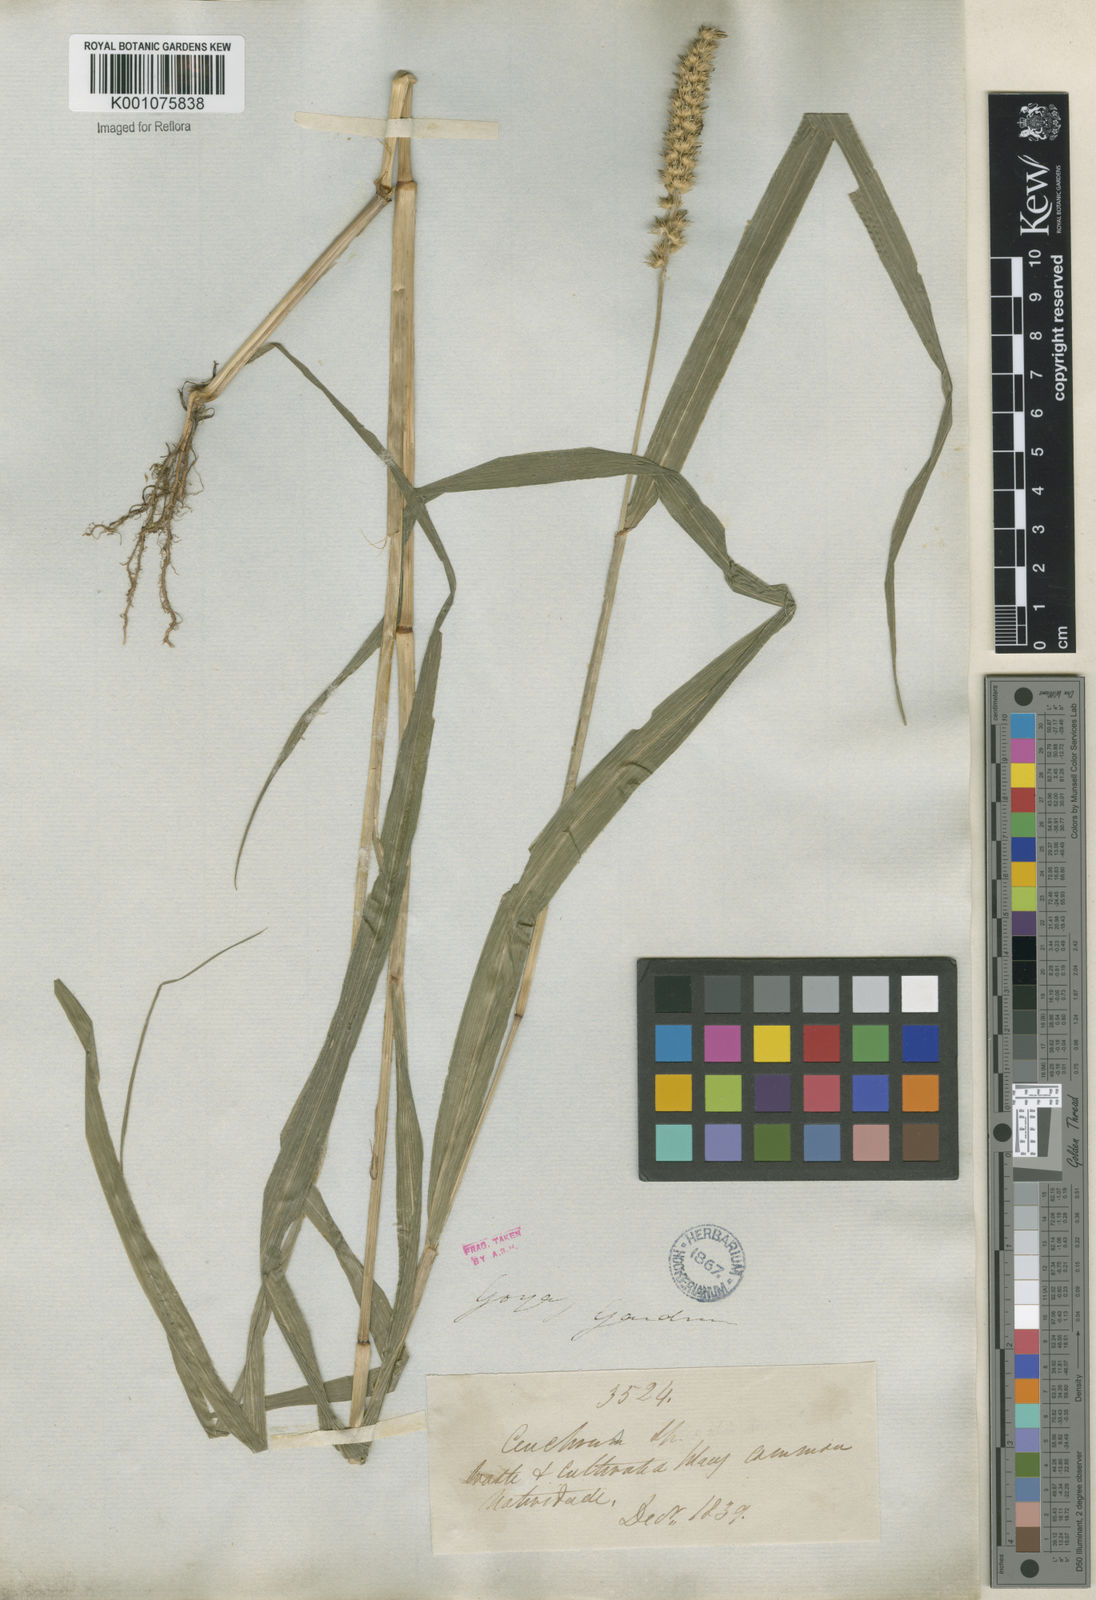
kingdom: Plantae
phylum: Tracheophyta
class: Liliopsida
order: Poales
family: Poaceae
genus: Cenchrus
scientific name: Cenchrus brownii
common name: Slim-bristle sandbur
